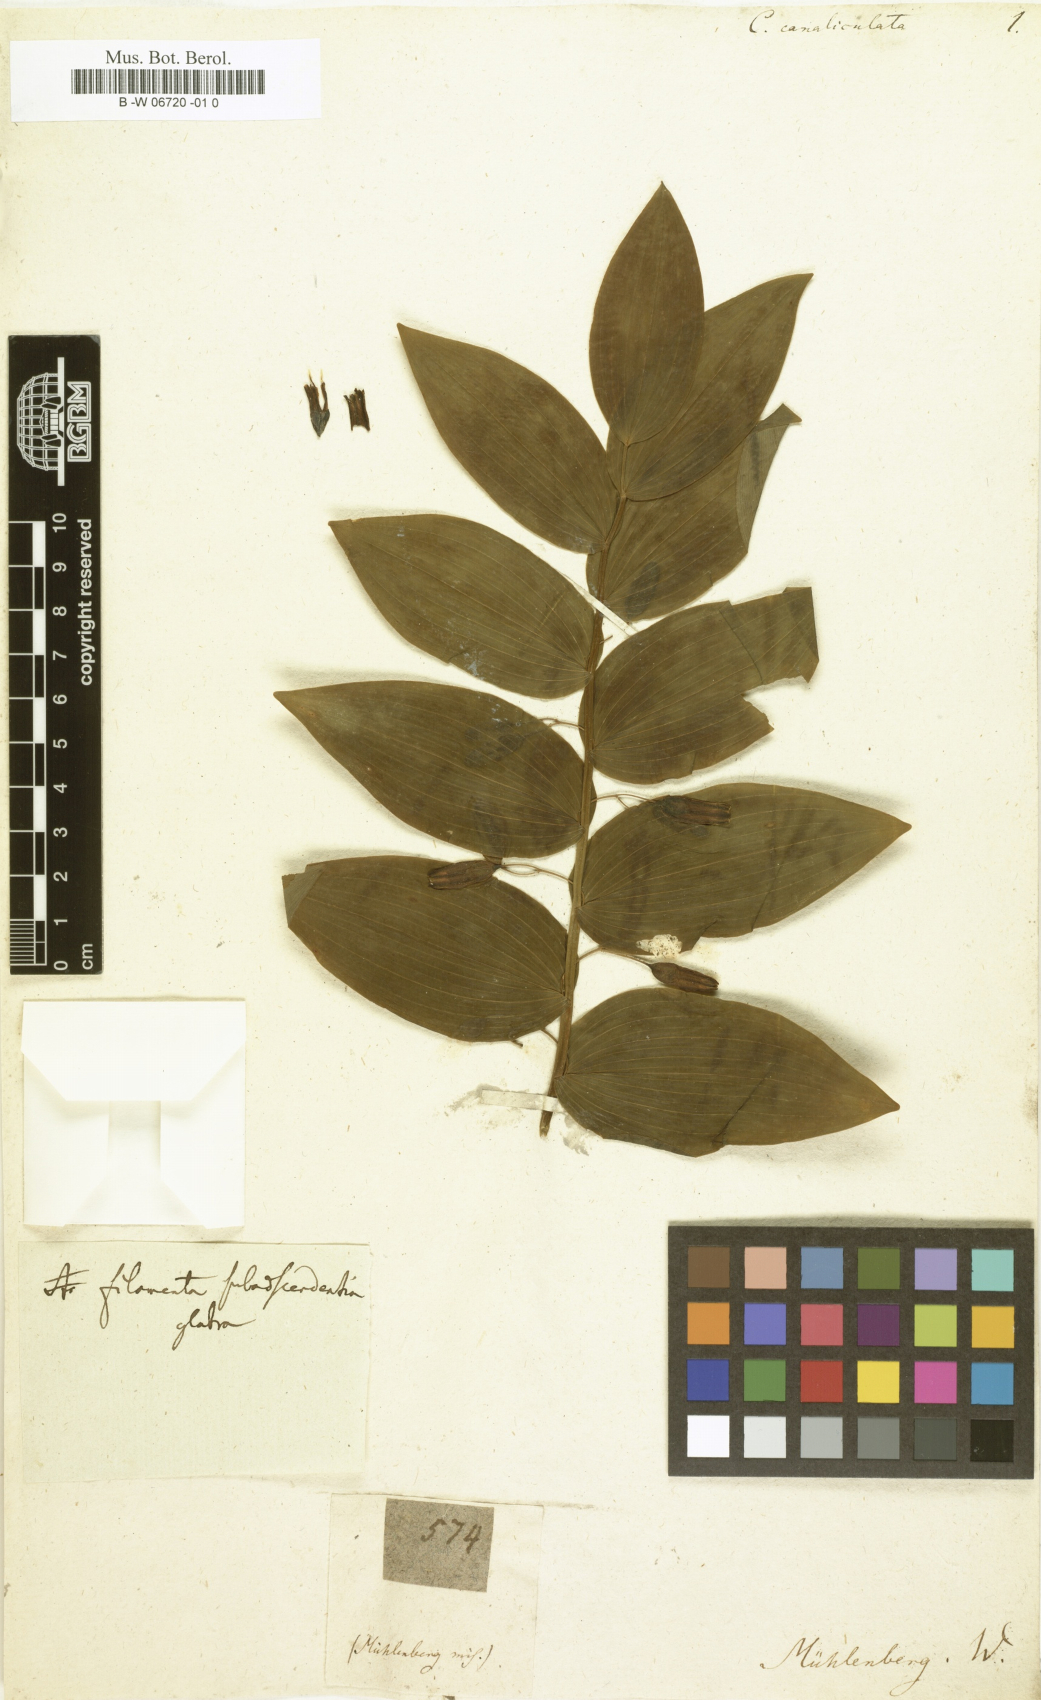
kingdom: Plantae
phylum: Tracheophyta
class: Liliopsida
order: Asparagales
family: Asparagaceae
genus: Polygonatum
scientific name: Polygonatum biflorum
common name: American solomon's-seal
